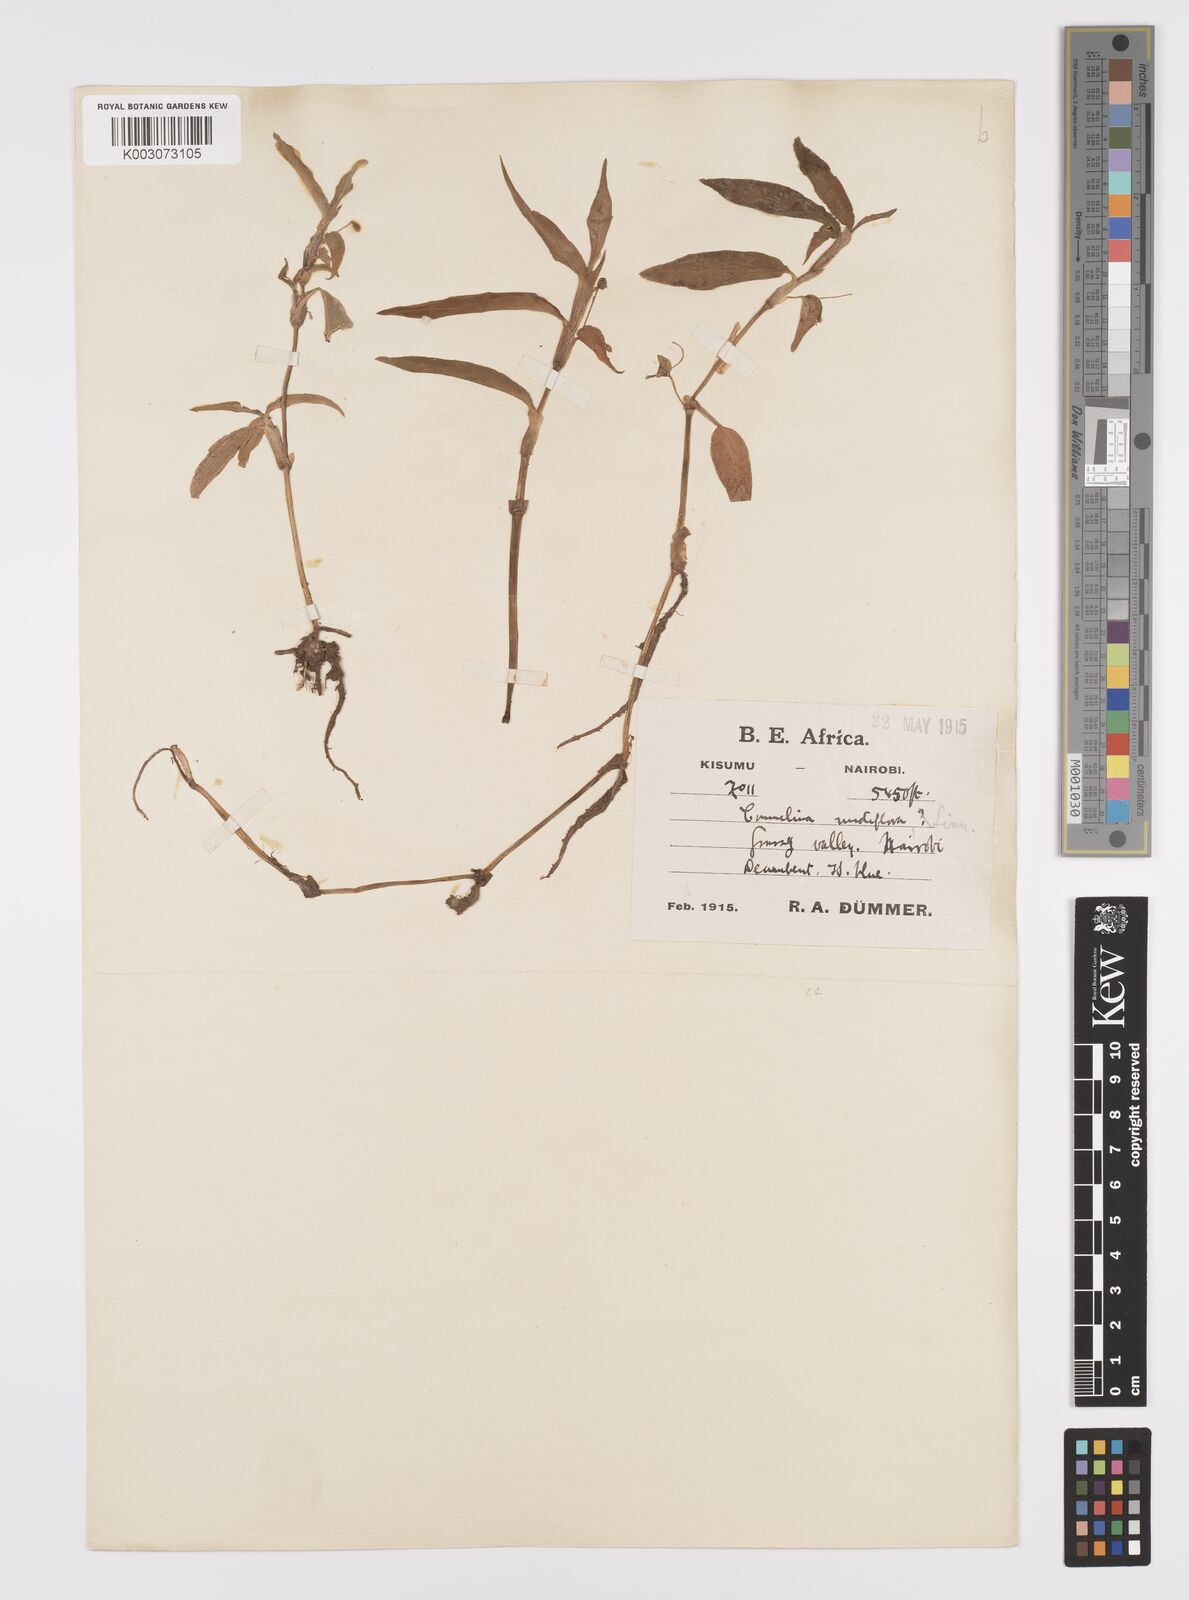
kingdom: Plantae
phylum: Tracheophyta
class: Liliopsida
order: Commelinales
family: Commelinaceae
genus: Commelina
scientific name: Commelina diffusa
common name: Climbing dayflower
